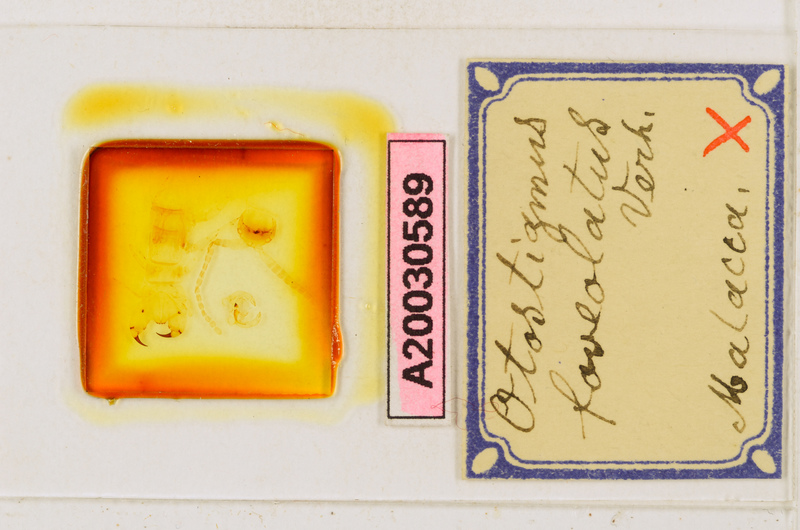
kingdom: Animalia
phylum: Arthropoda
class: Chilopoda
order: Scolopendromorpha
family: Scolopendridae
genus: Otostigmus
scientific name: Otostigmus foveolatus
